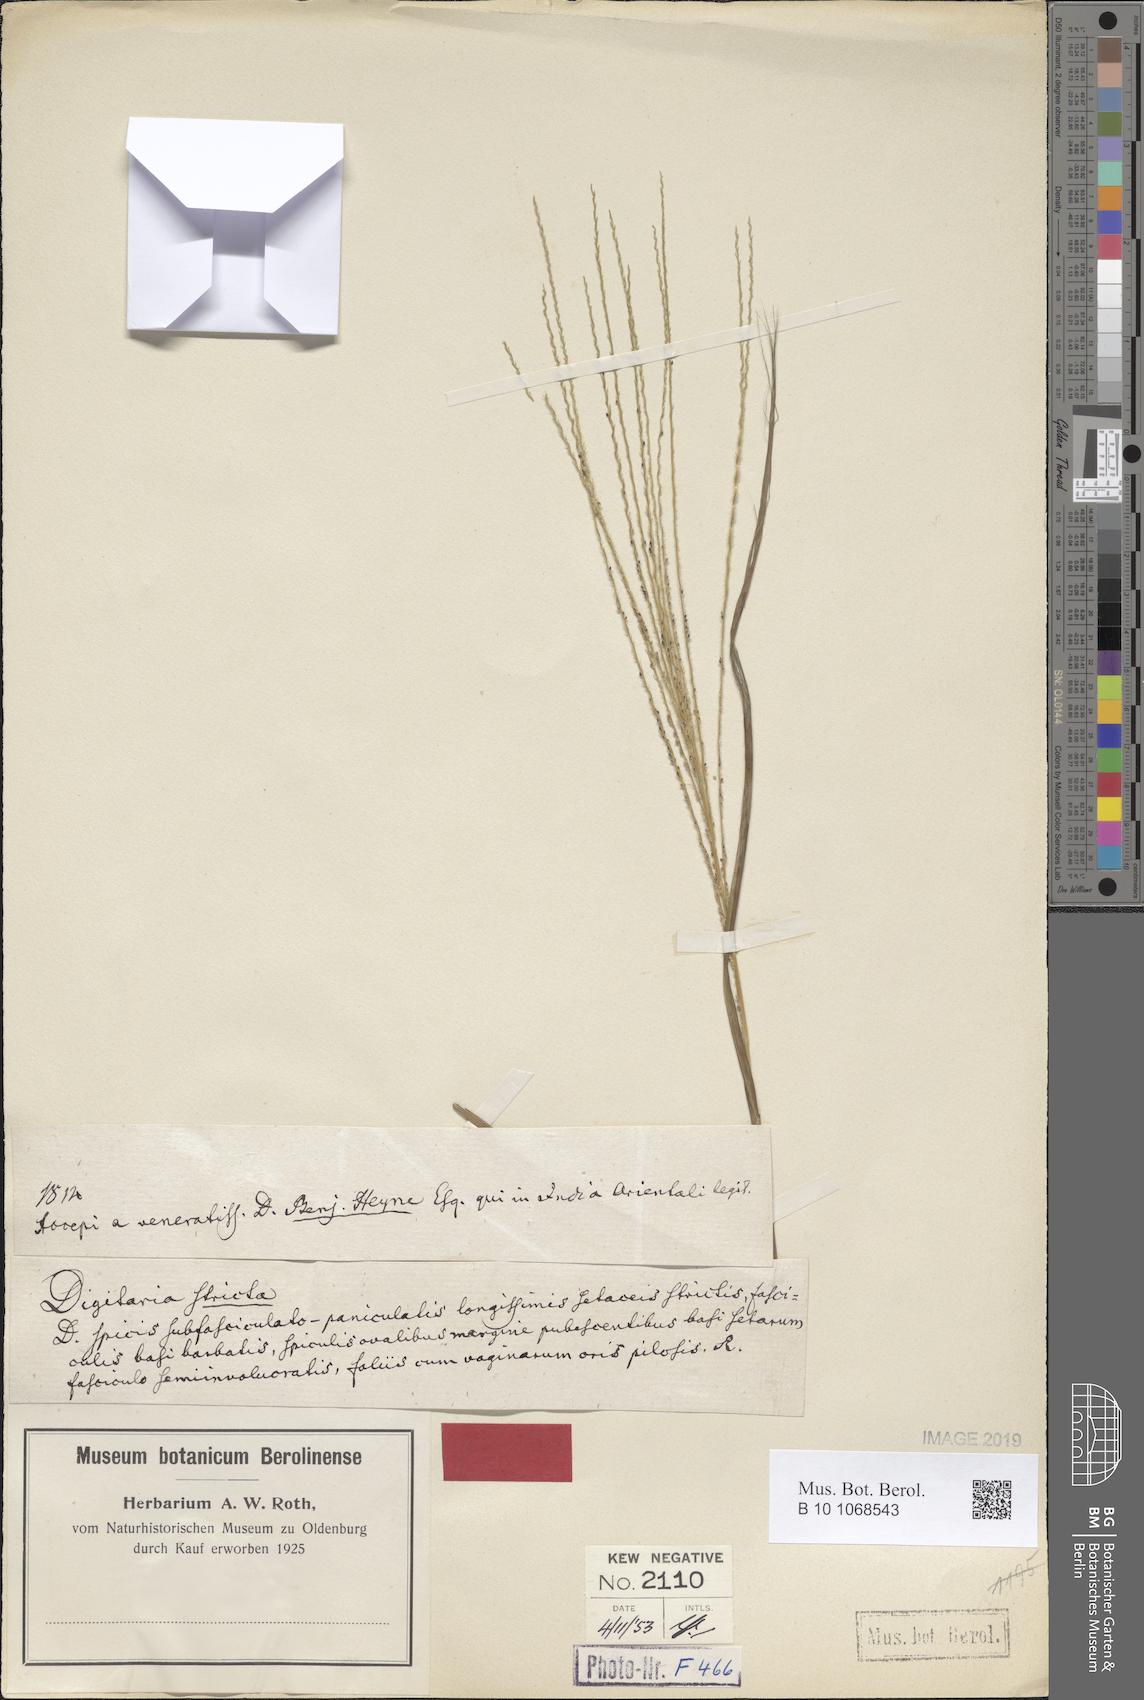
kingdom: Plantae
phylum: Tracheophyta
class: Liliopsida
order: Poales
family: Poaceae
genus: Digitaria
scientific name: Digitaria stricta
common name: Crabgrass
